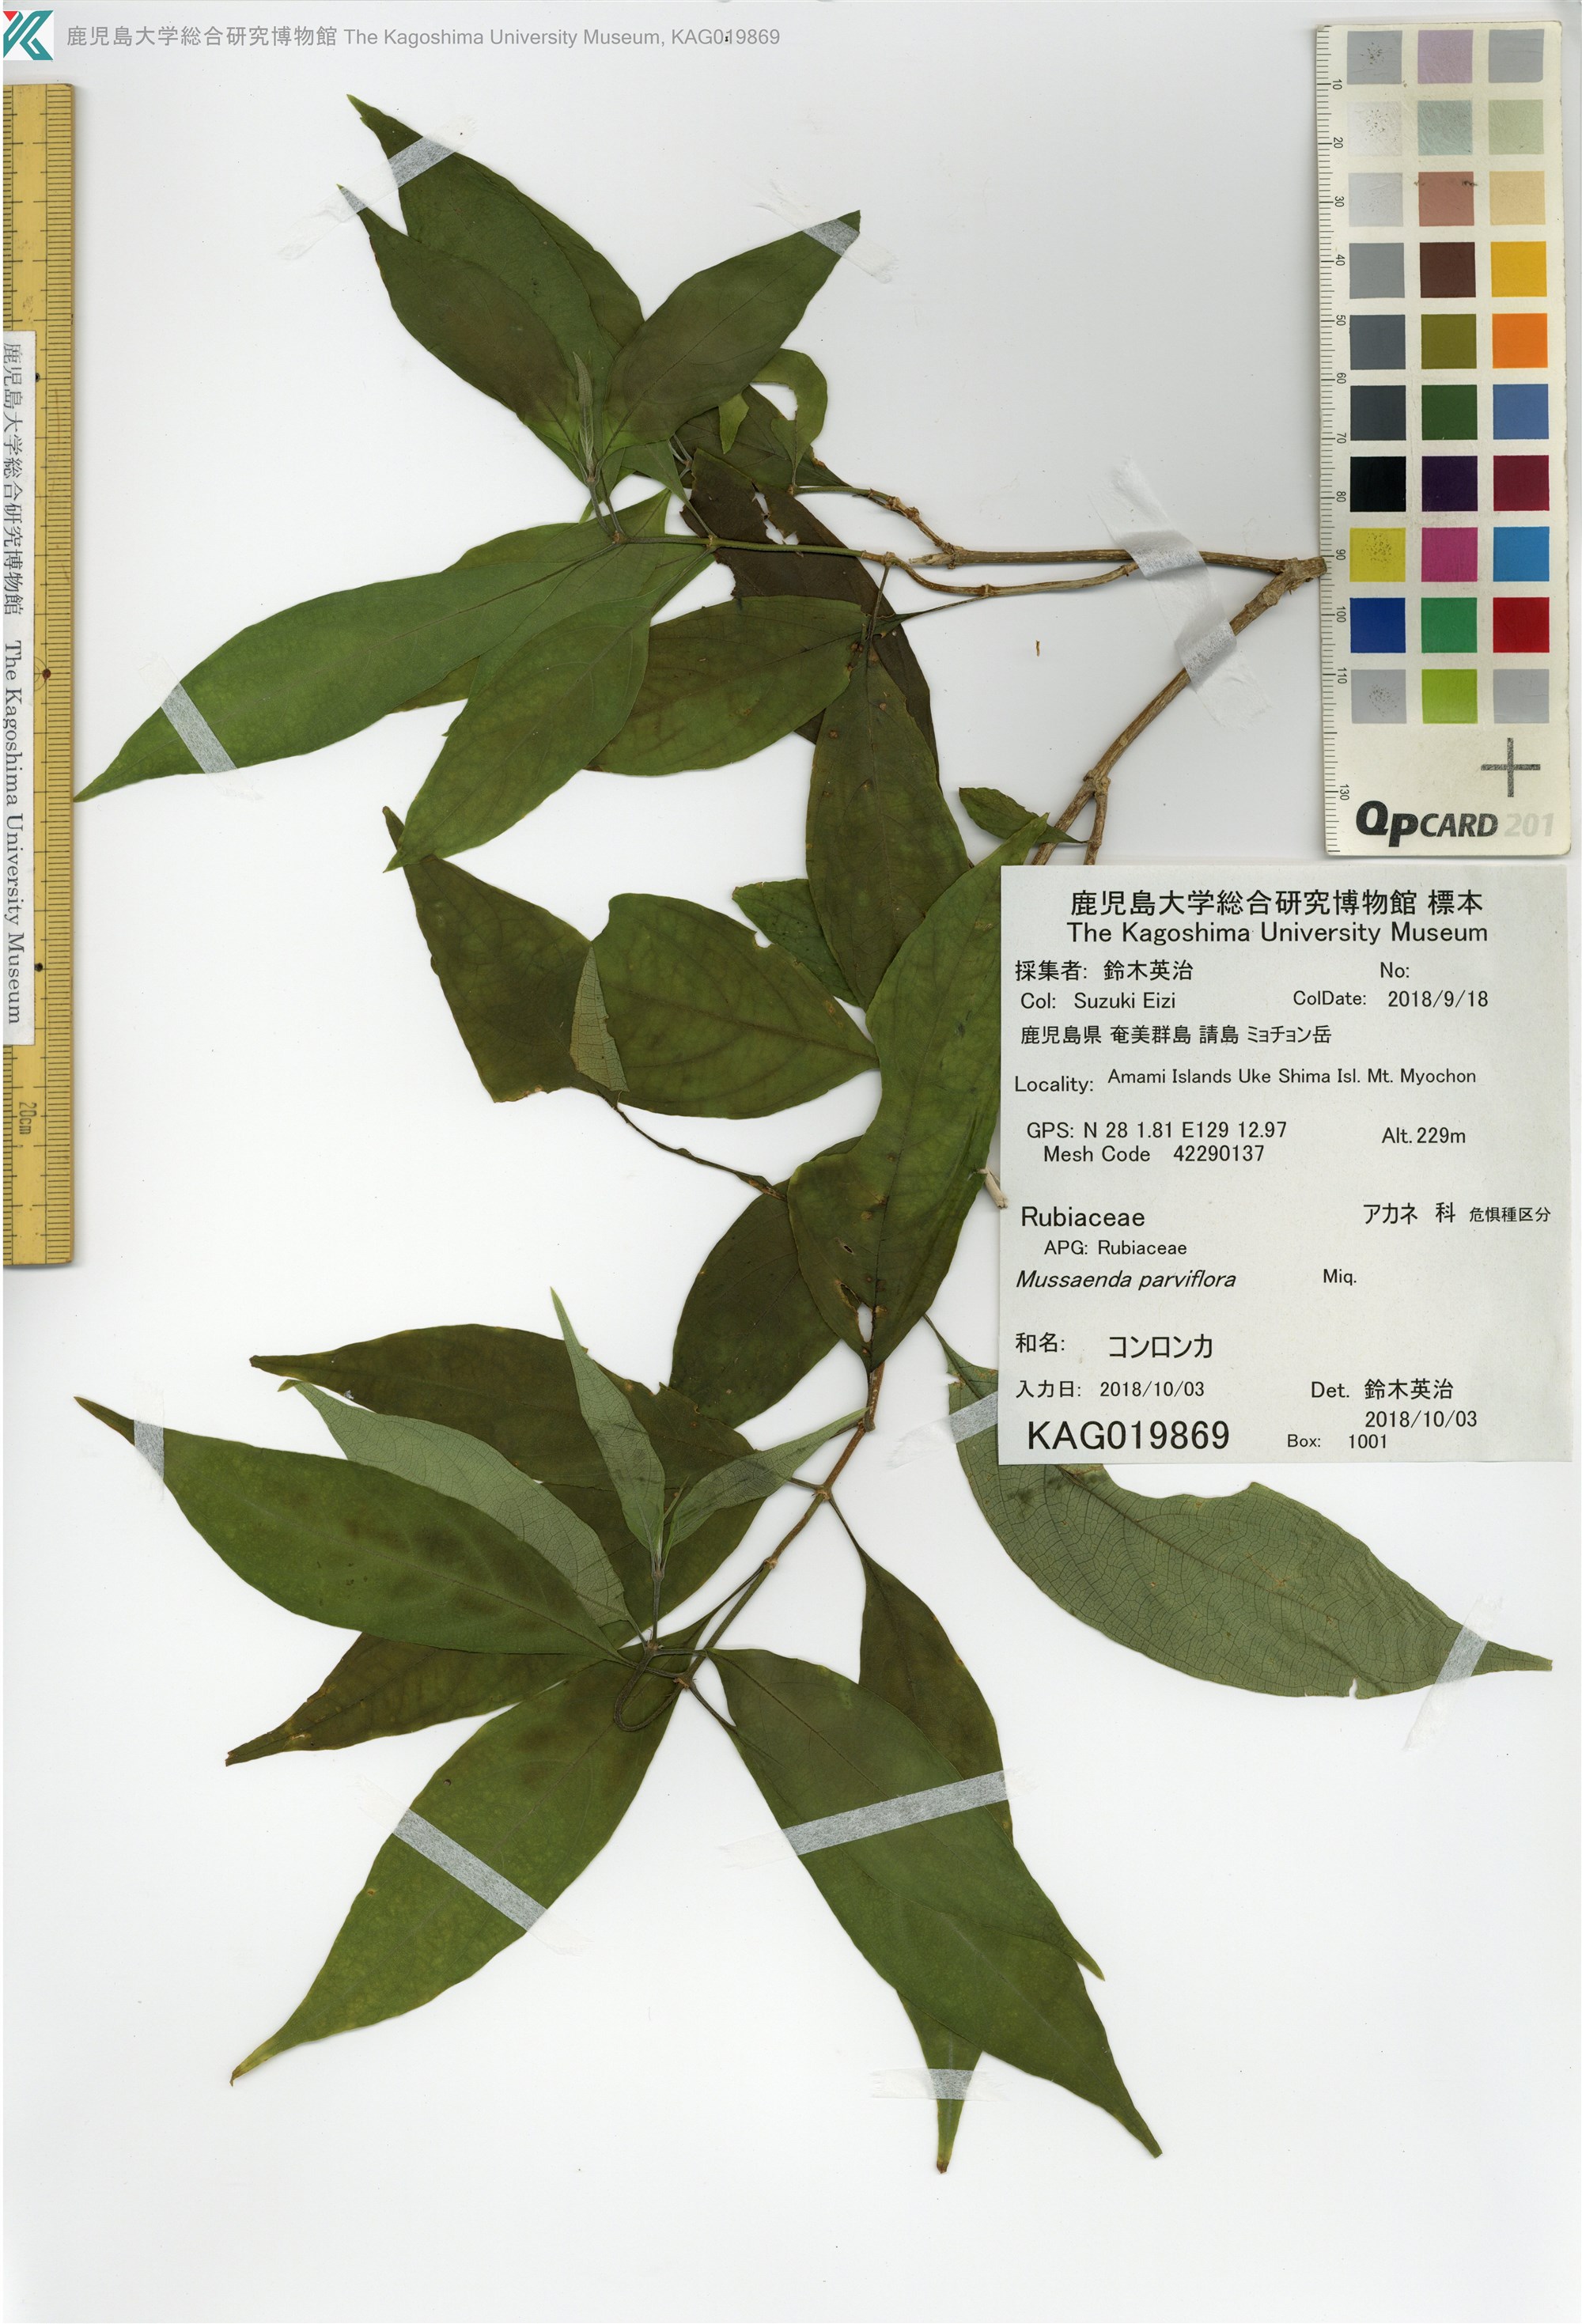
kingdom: Plantae
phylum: Tracheophyta
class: Magnoliopsida
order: Gentianales
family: Rubiaceae
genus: Mussaenda
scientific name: Mussaenda parviflora
